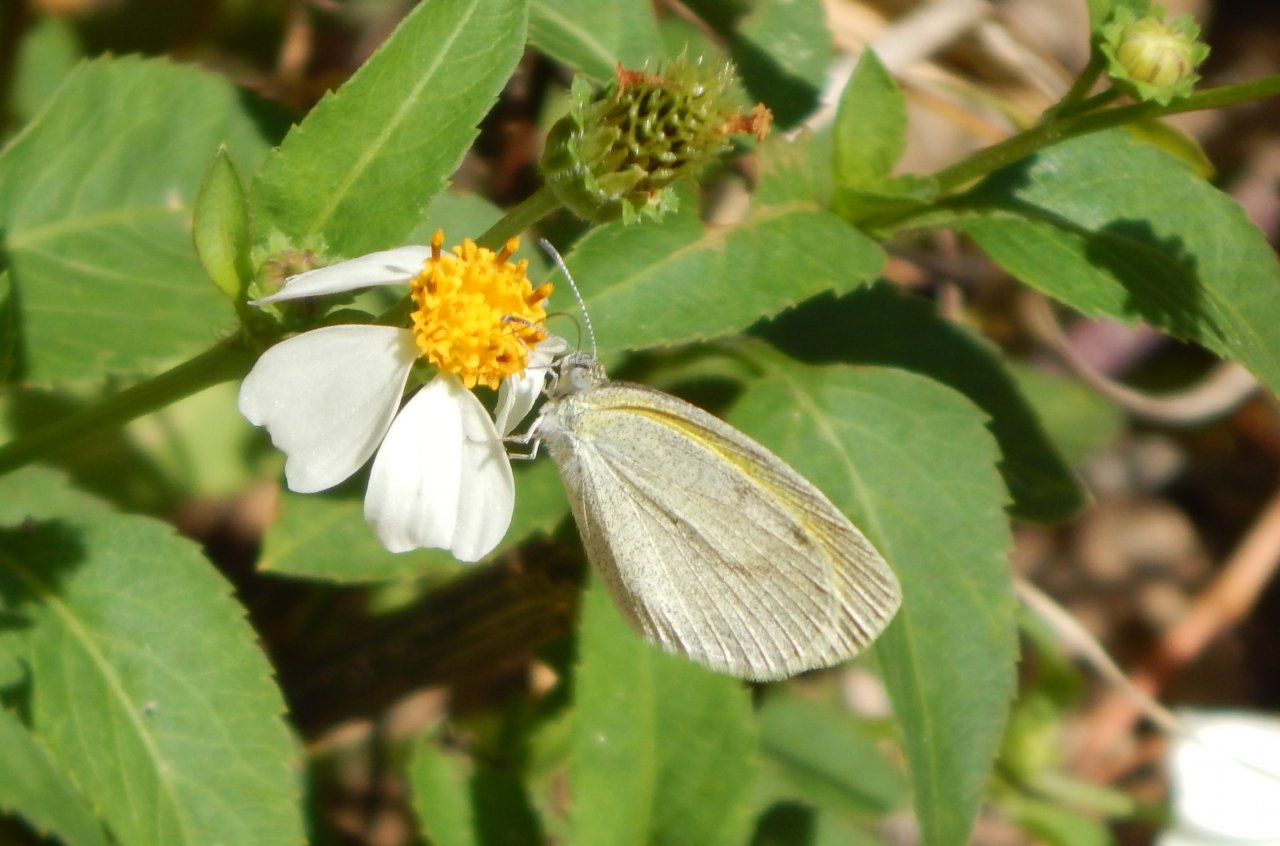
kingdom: Animalia
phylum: Arthropoda
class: Insecta
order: Lepidoptera
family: Pieridae
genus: Eurema
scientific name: Eurema daira
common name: Barred Yellow
